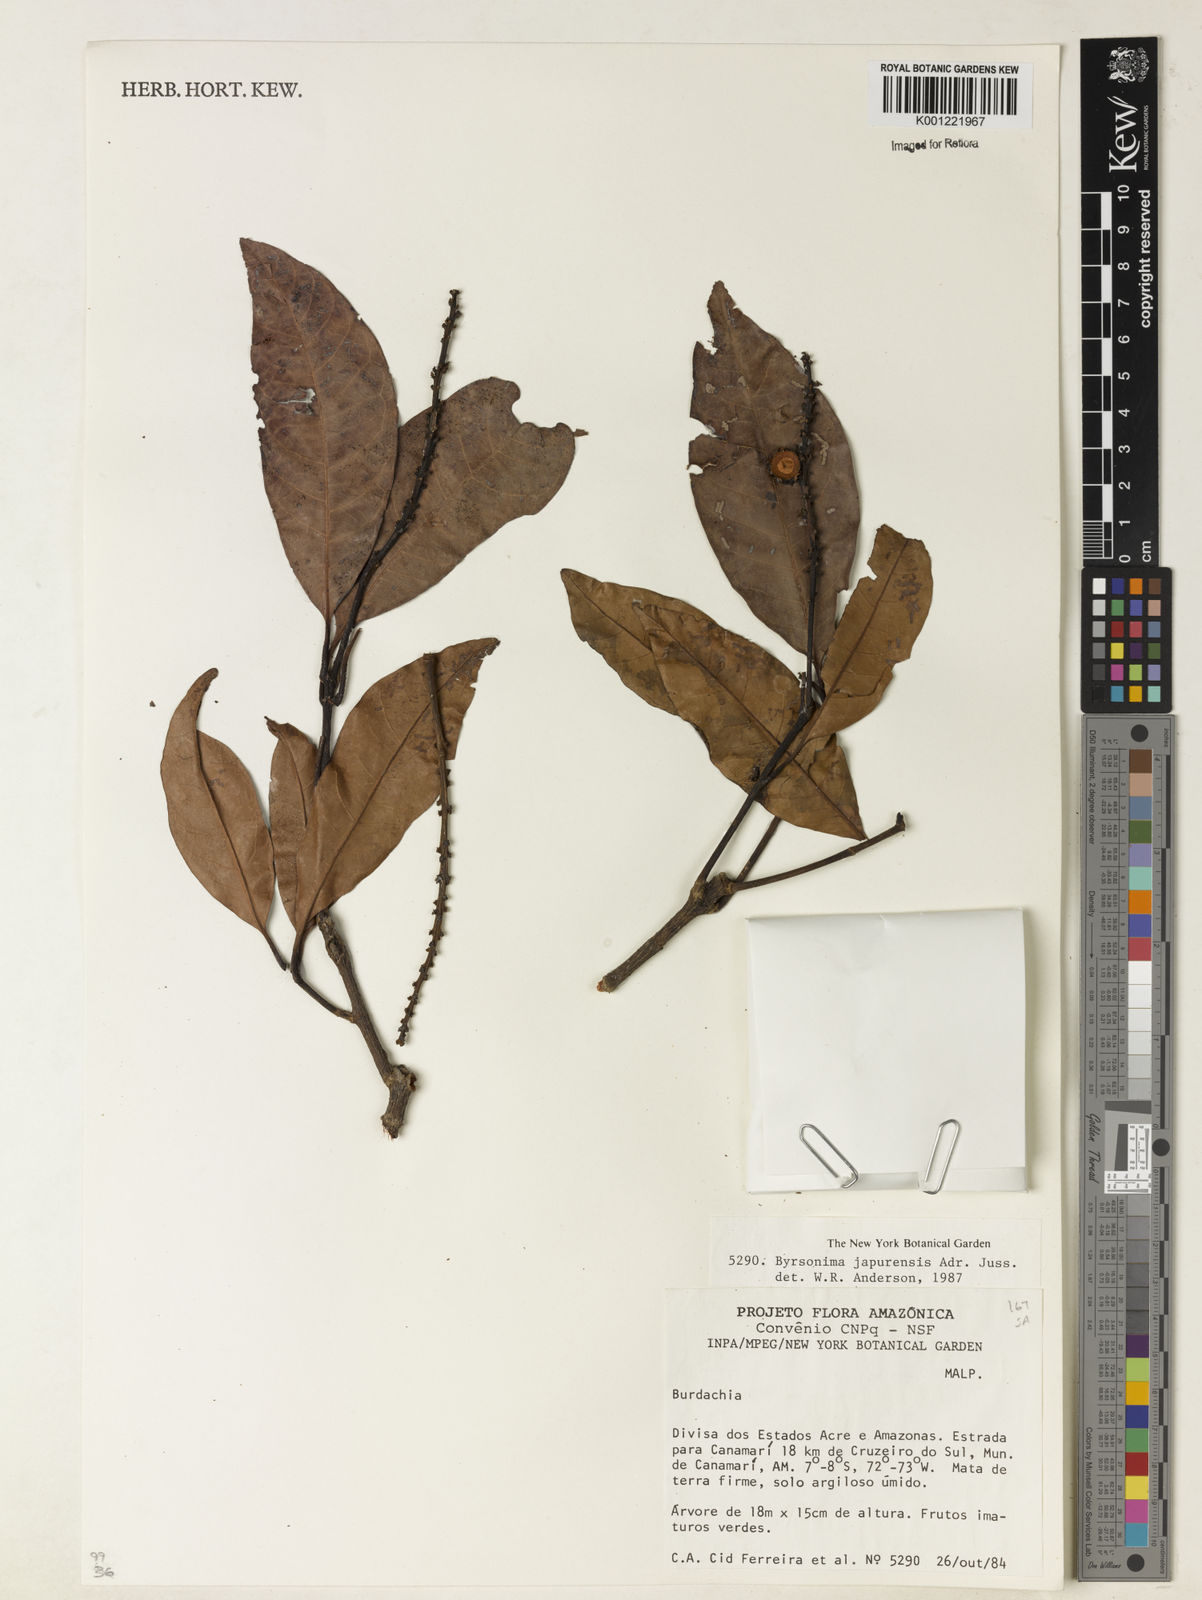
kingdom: Plantae
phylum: Tracheophyta
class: Magnoliopsida
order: Malpighiales
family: Malpighiaceae
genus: Byrsonima
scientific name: Byrsonima japurensis
